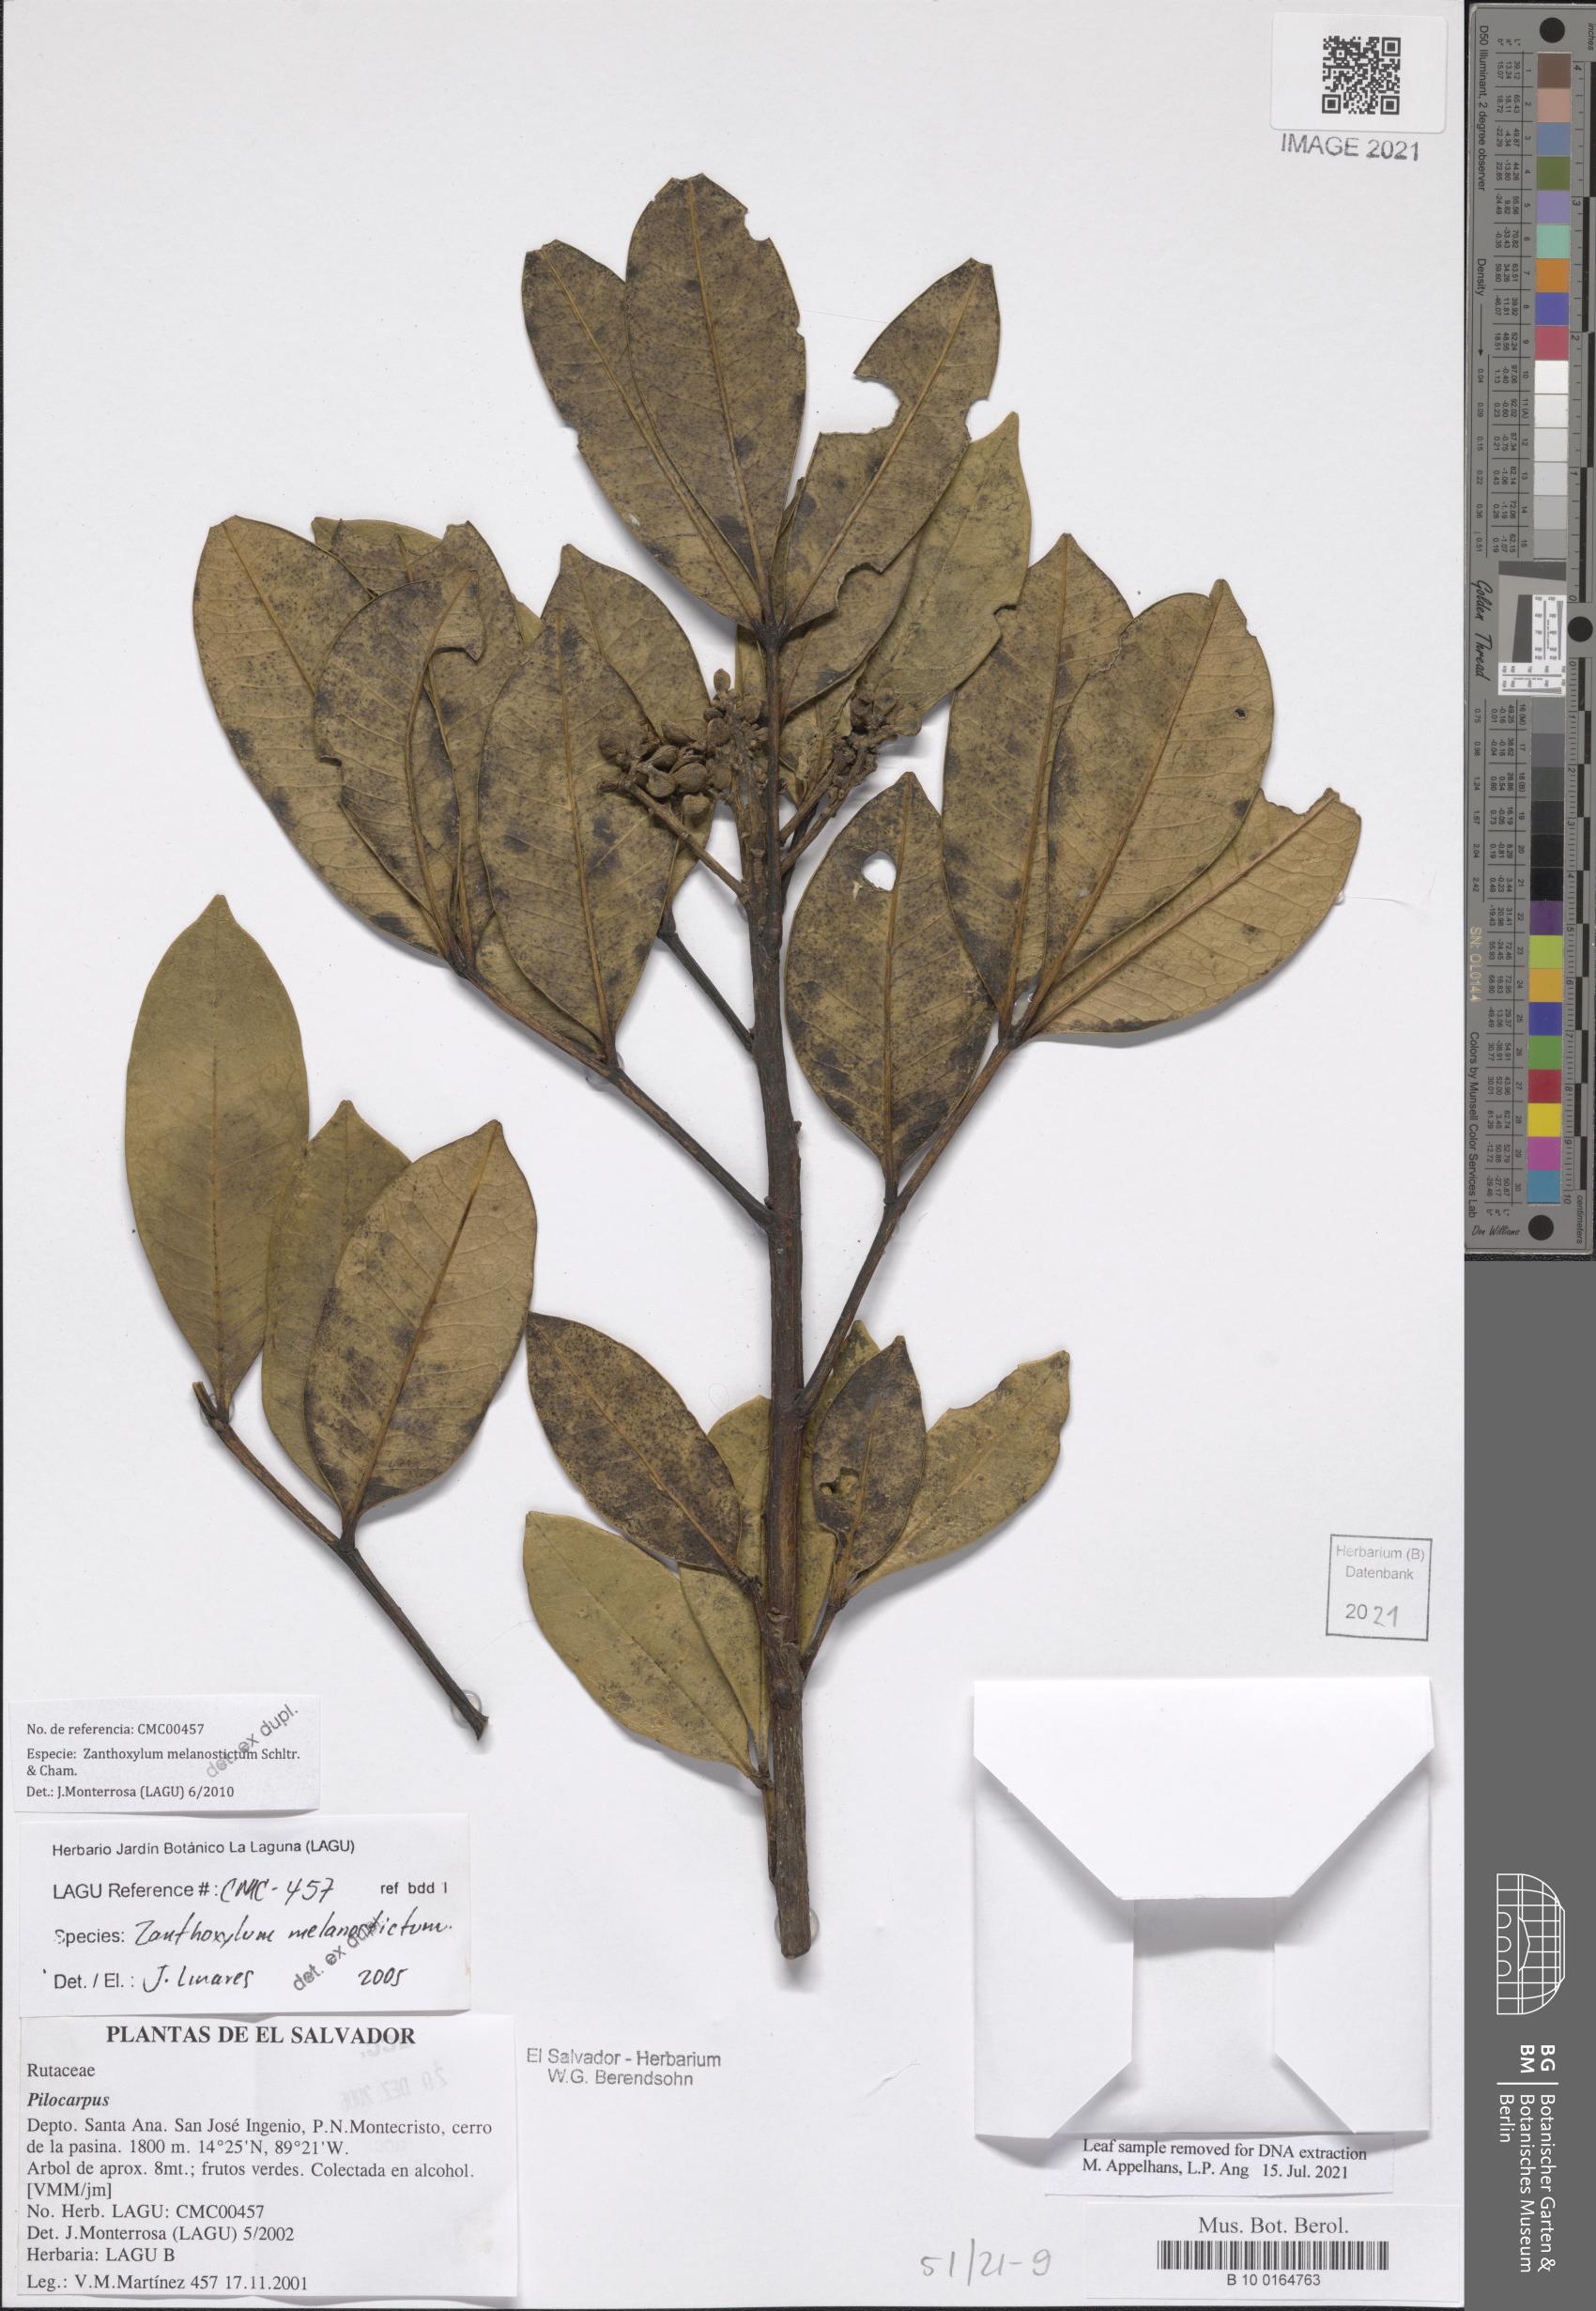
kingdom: Plantae
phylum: Tracheophyta
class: Magnoliopsida
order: Sapindales
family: Rutaceae
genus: Zanthoxylum
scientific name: Zanthoxylum melanostictum
